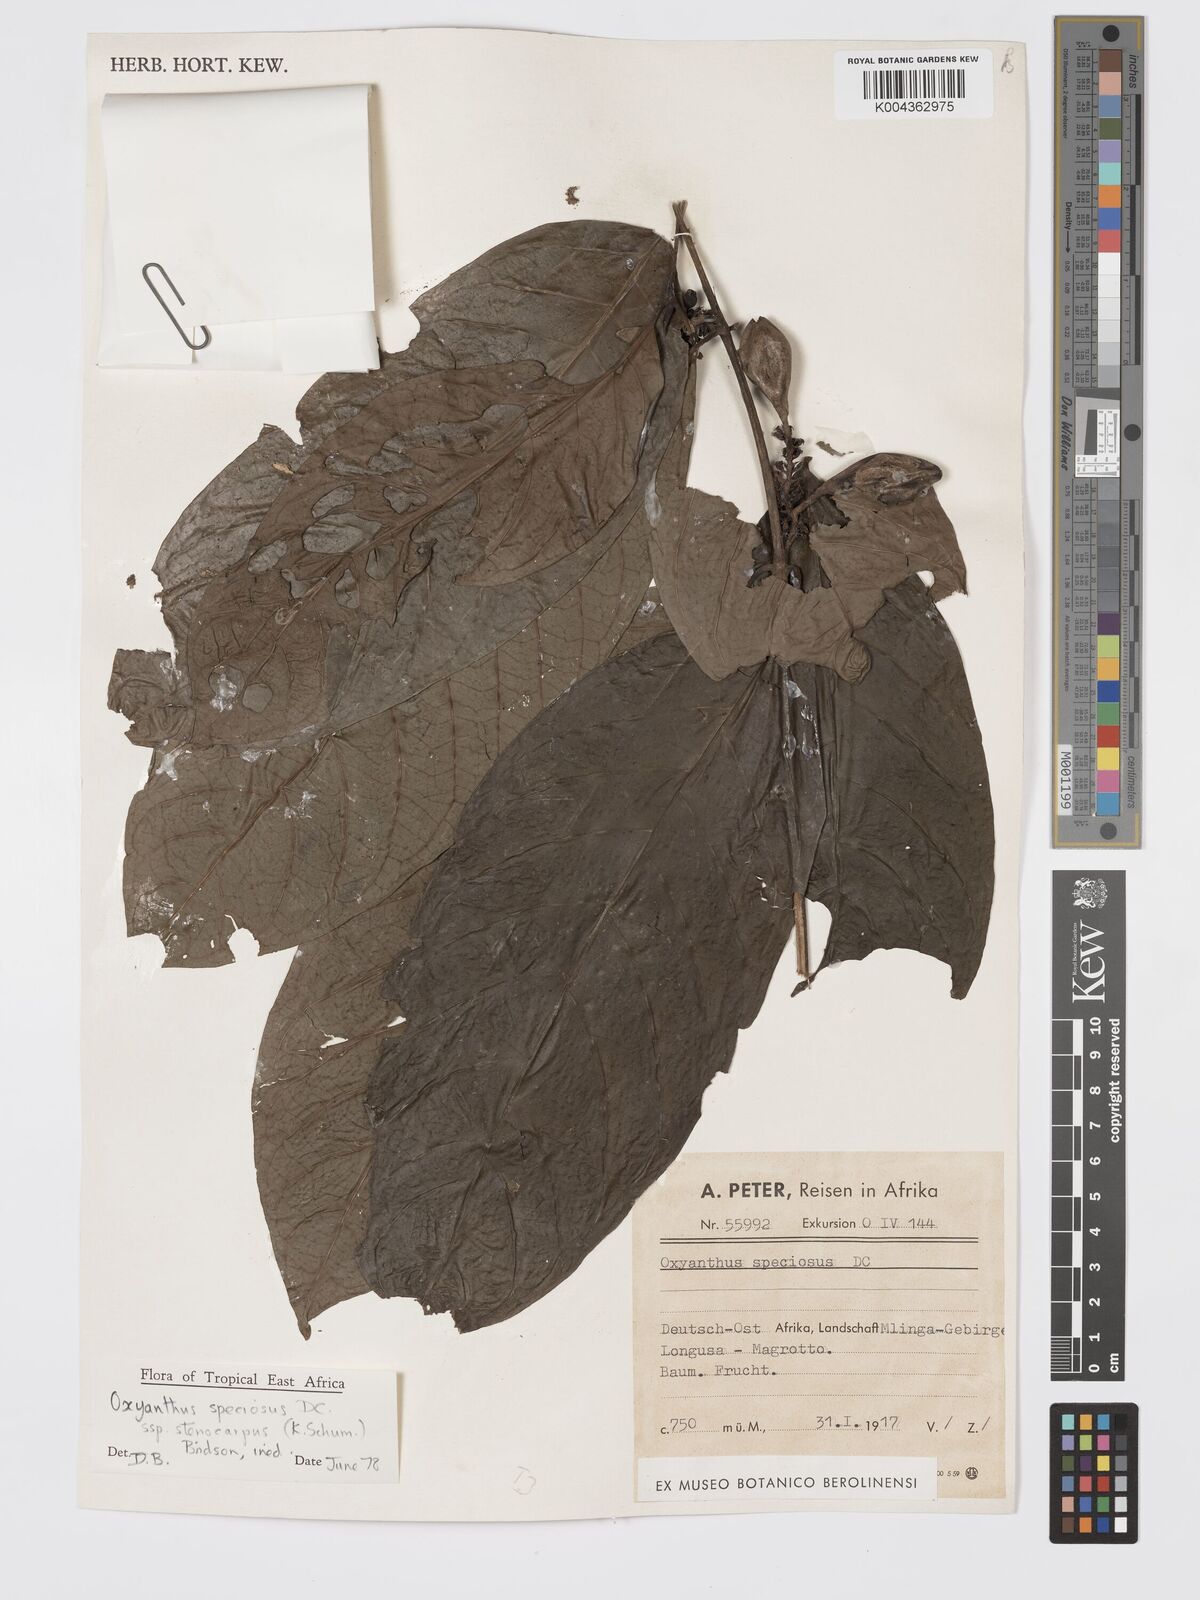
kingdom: Plantae
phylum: Tracheophyta
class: Magnoliopsida
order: Gentianales
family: Rubiaceae
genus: Oxyanthus
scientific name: Oxyanthus speciosus
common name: Whipstick loquat
